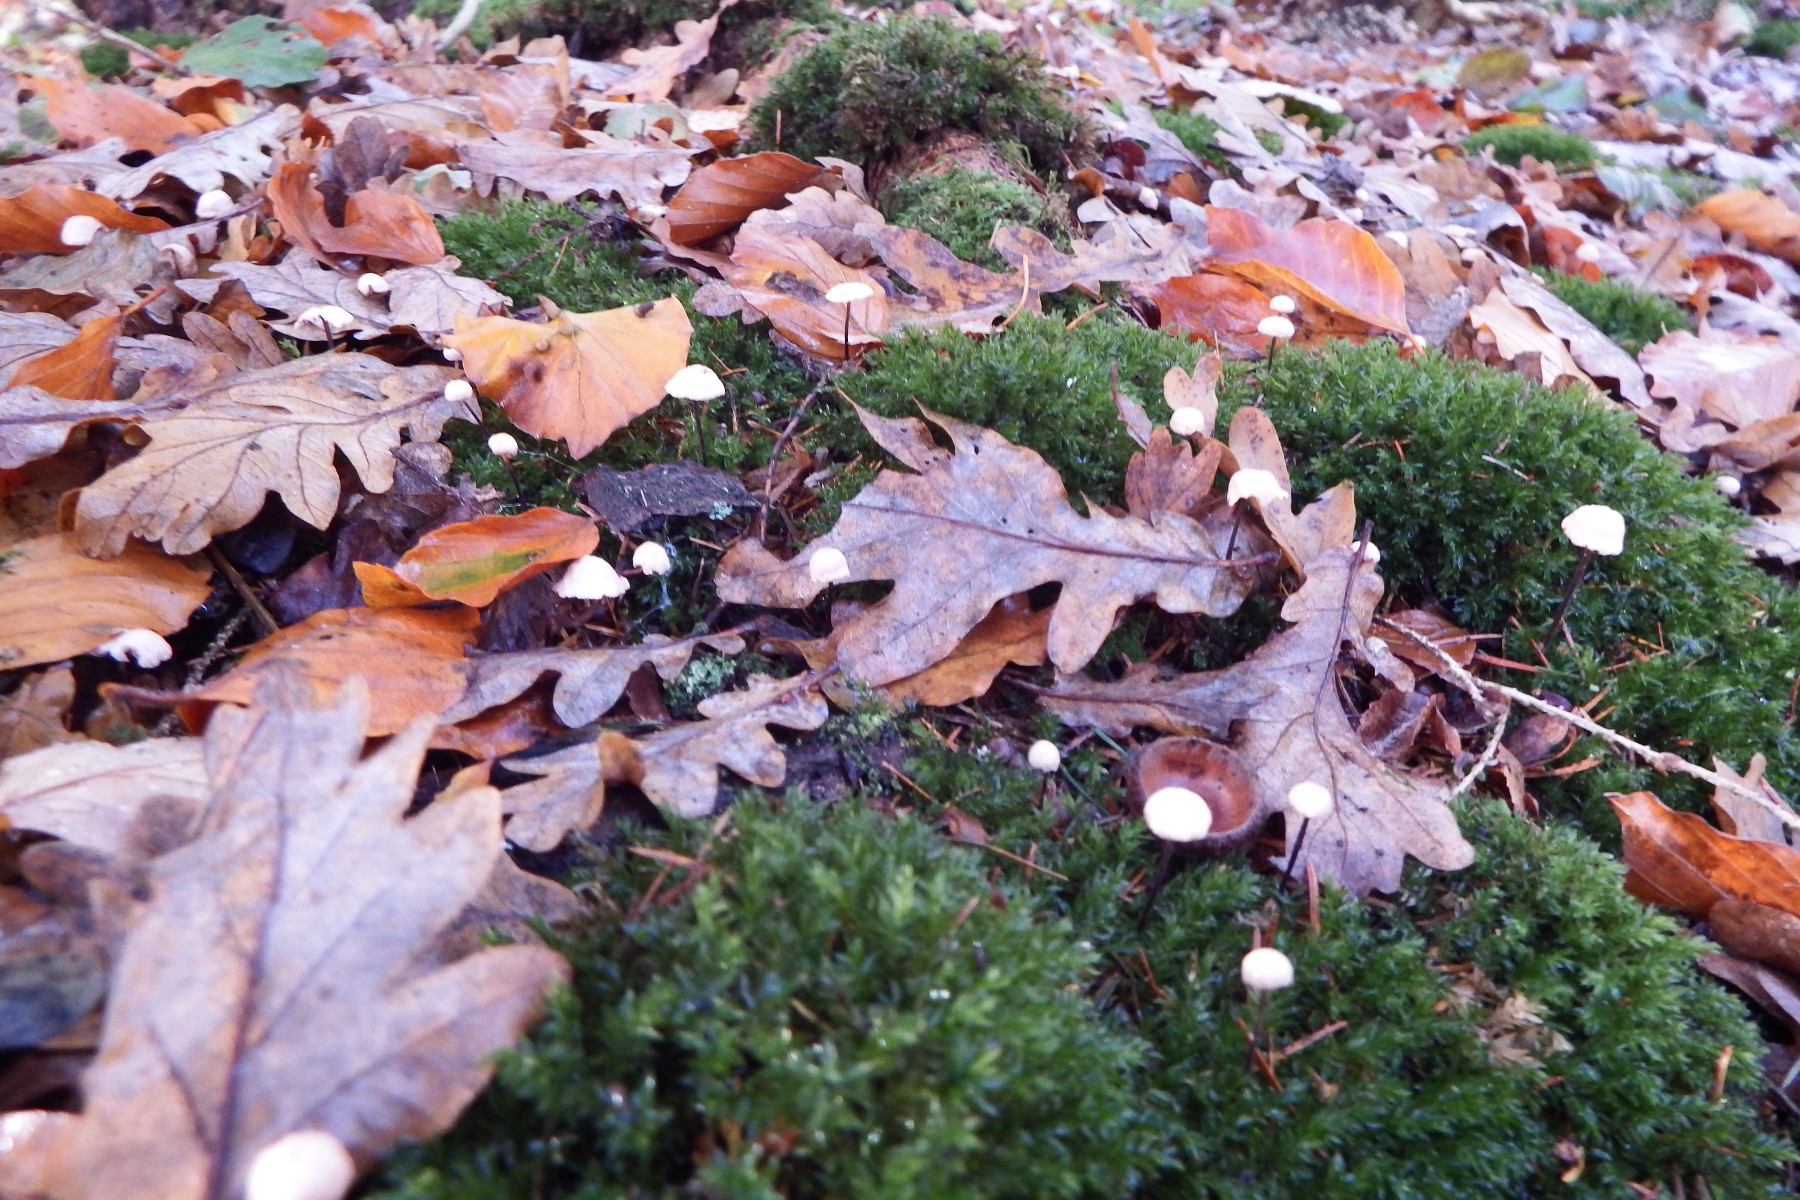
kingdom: Fungi
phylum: Basidiomycota
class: Agaricomycetes
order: Agaricales
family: Omphalotaceae
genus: Paragymnopus
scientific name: Paragymnopus perforans
